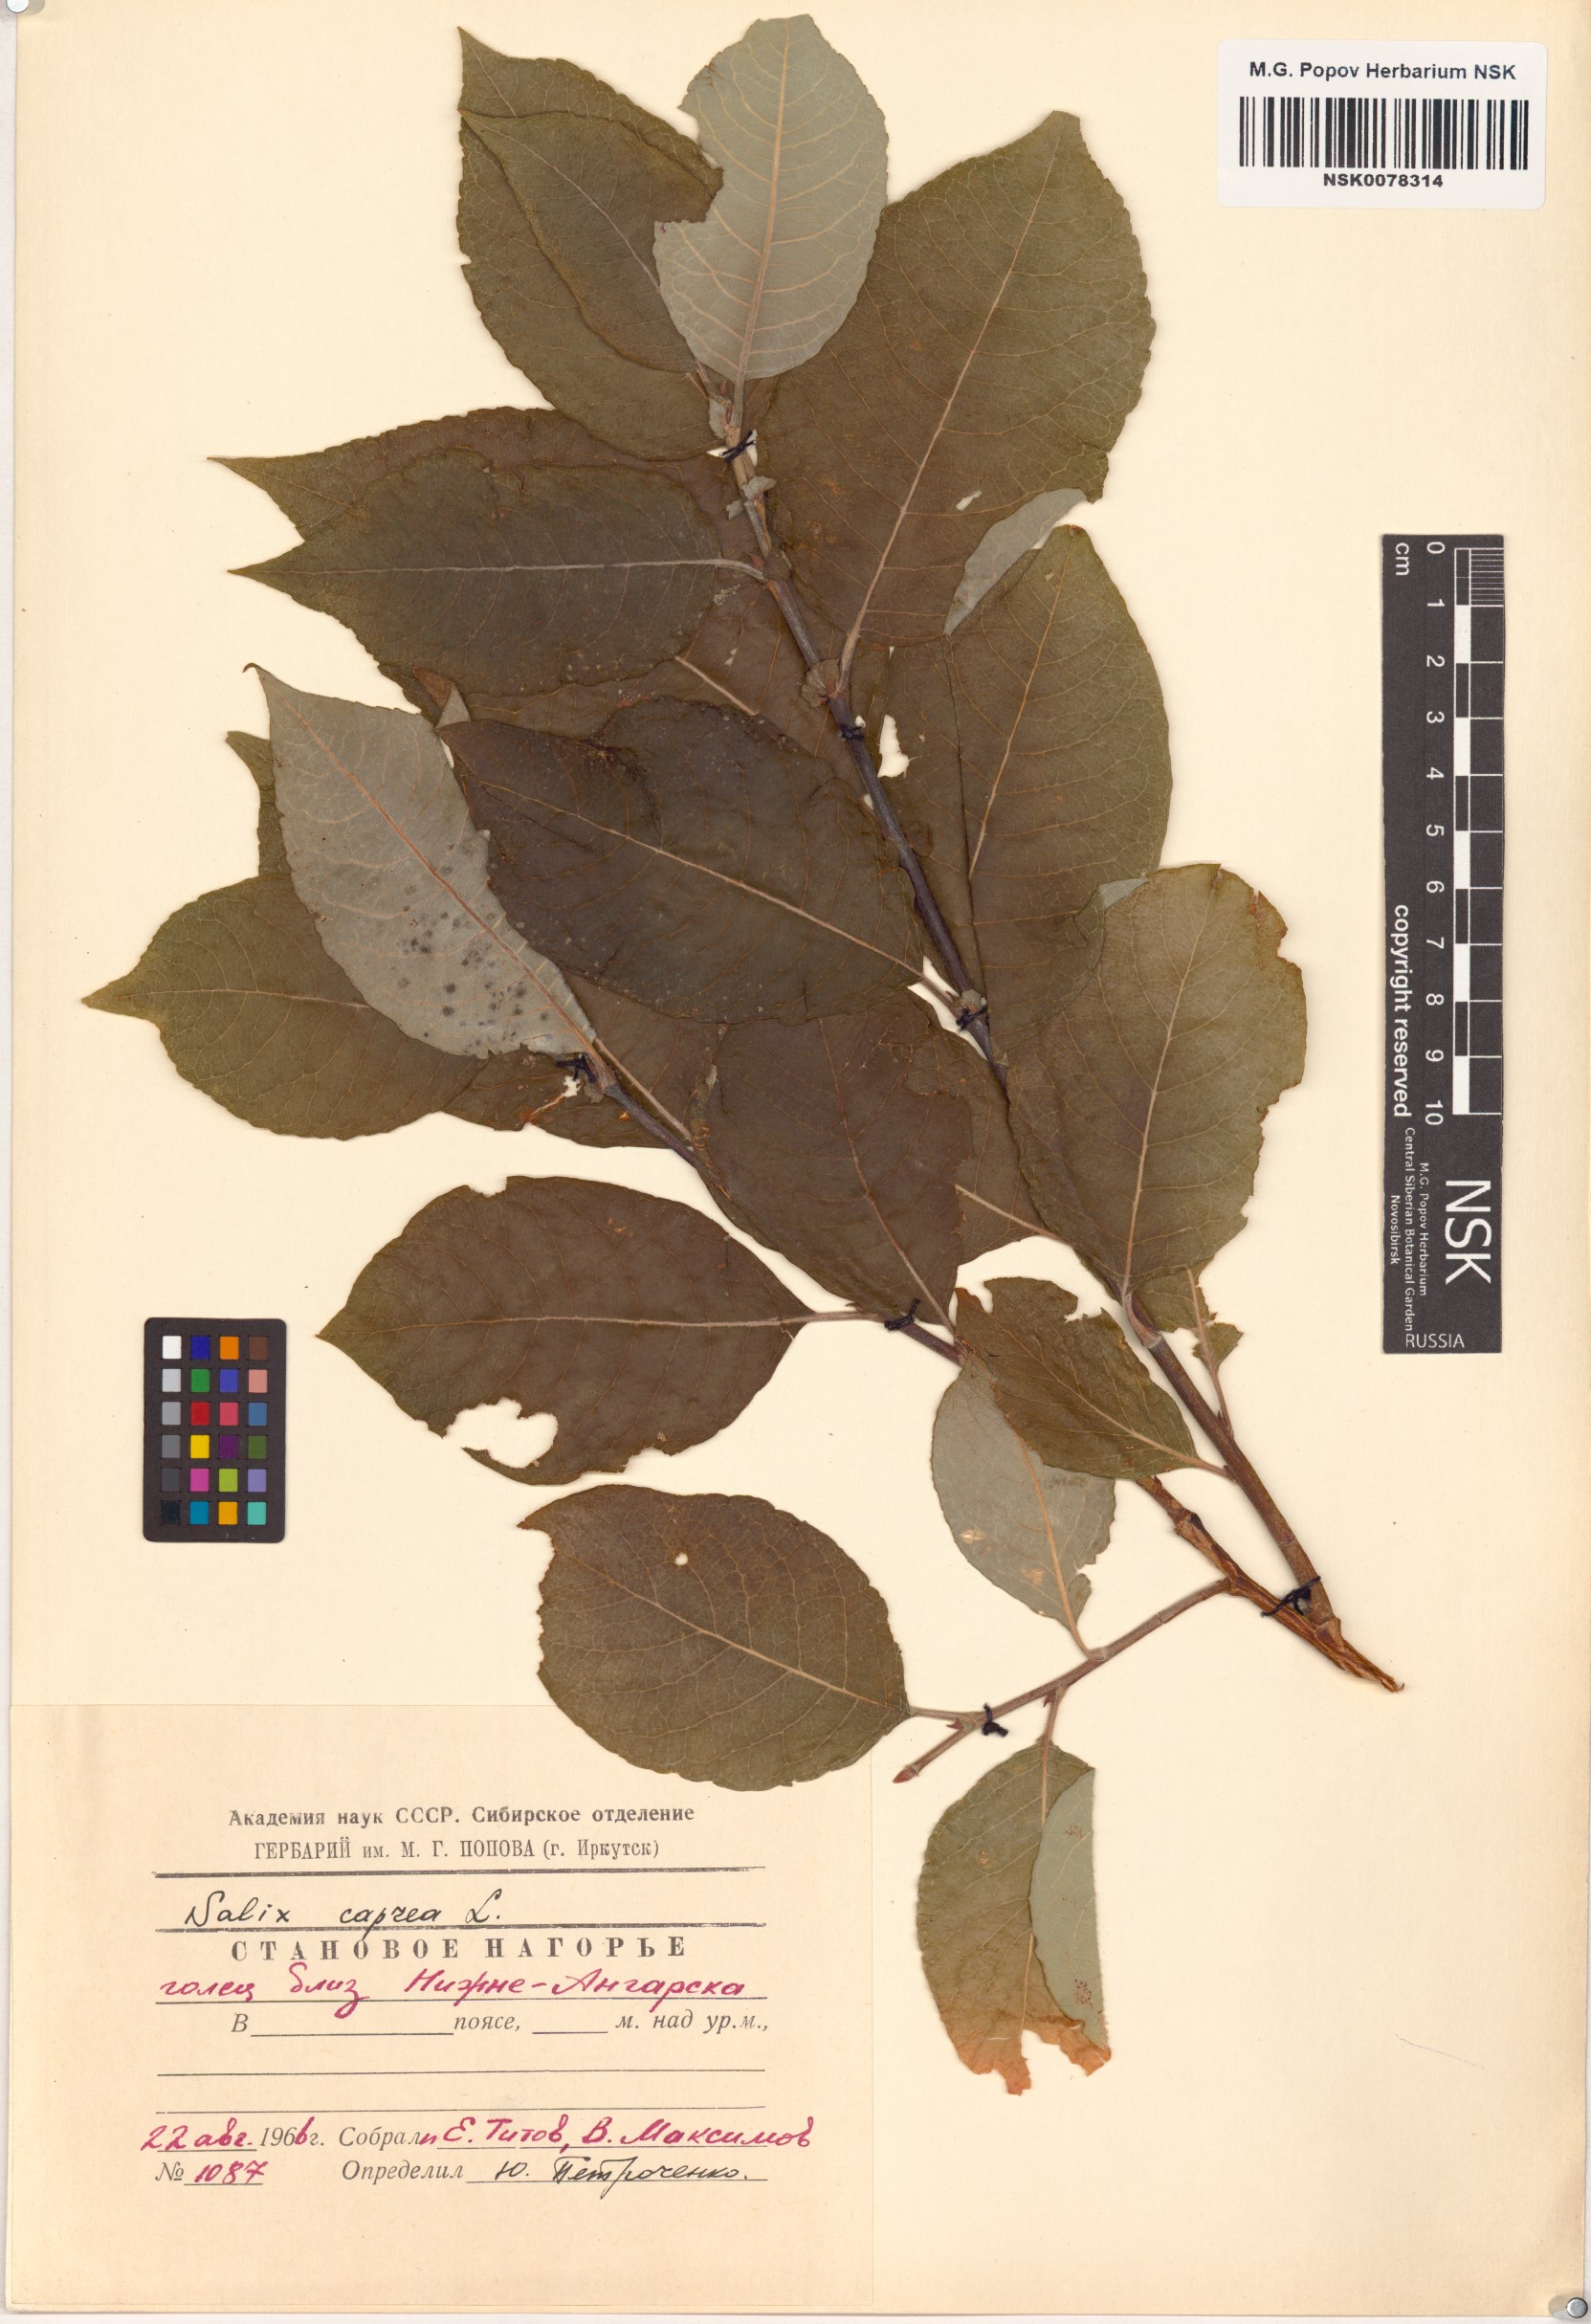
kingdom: Plantae
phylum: Tracheophyta
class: Magnoliopsida
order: Malpighiales
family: Salicaceae
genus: Salix
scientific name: Salix caprea
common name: Goat willow
